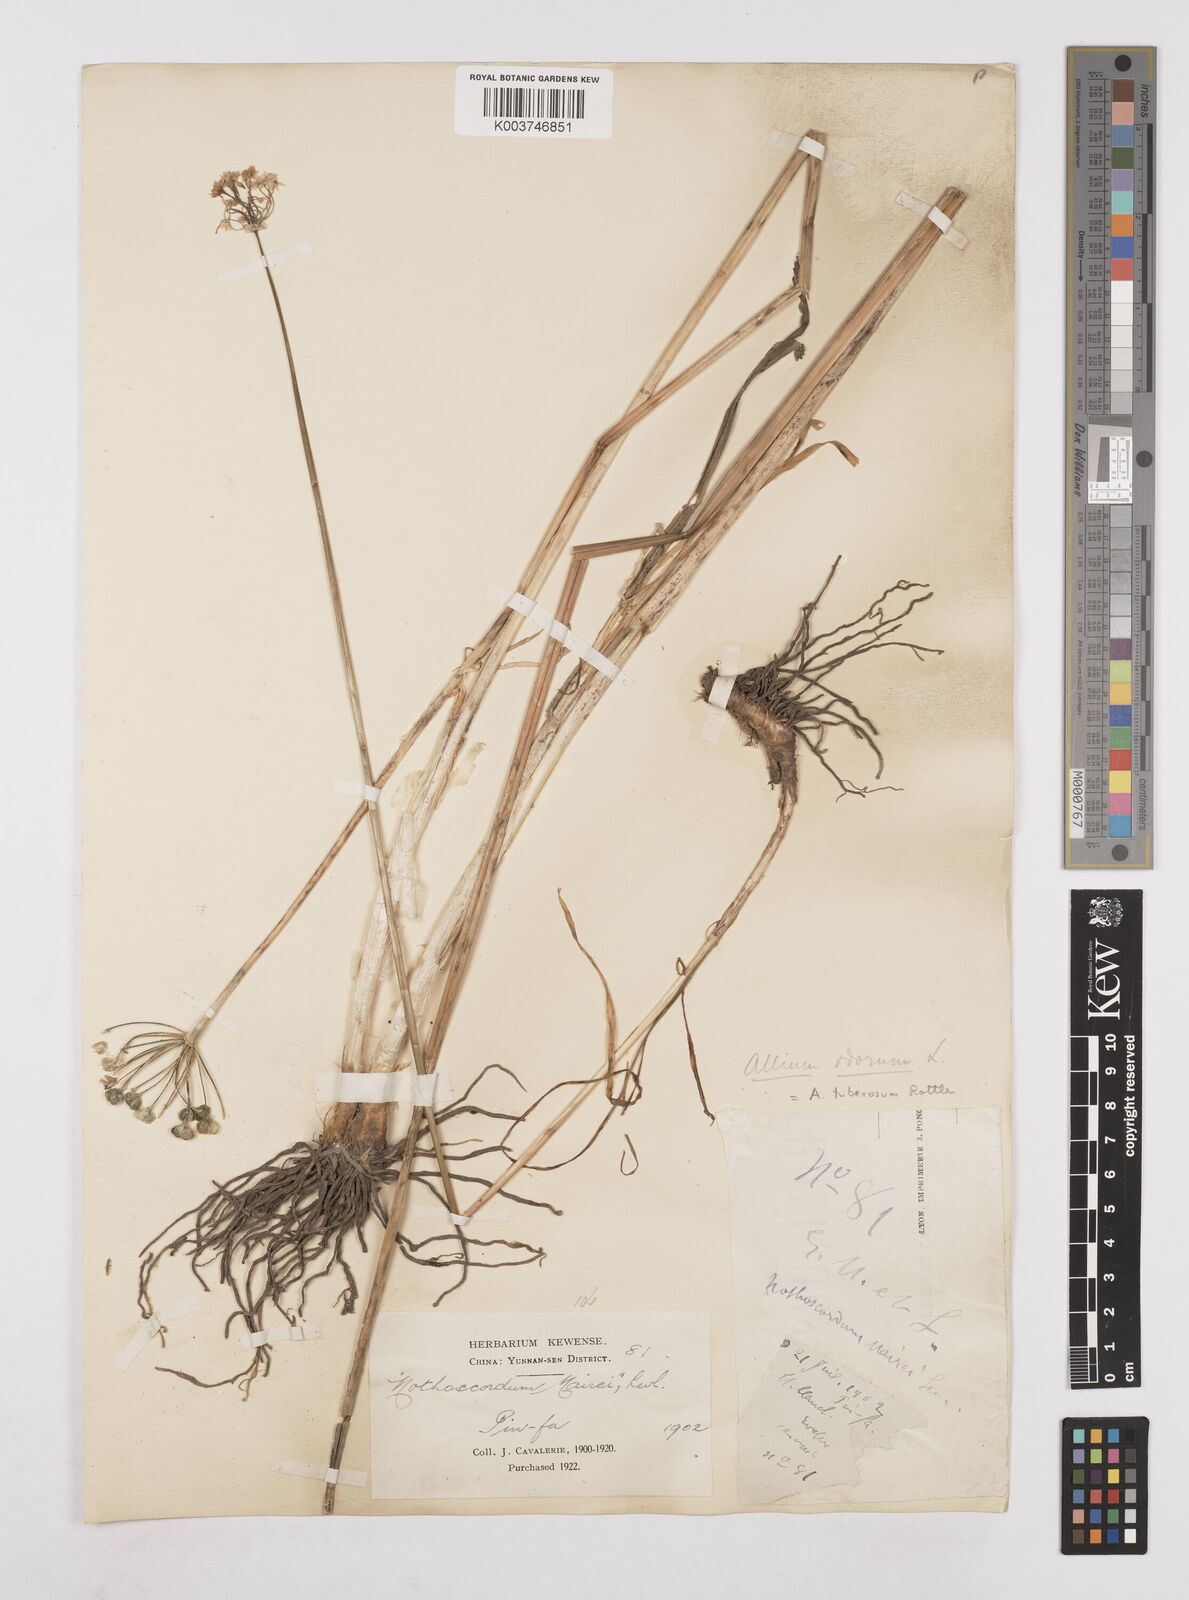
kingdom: Plantae
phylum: Tracheophyta
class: Liliopsida
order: Asparagales
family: Amaryllidaceae
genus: Allium
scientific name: Allium ramosum
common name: Fragrant garlic
